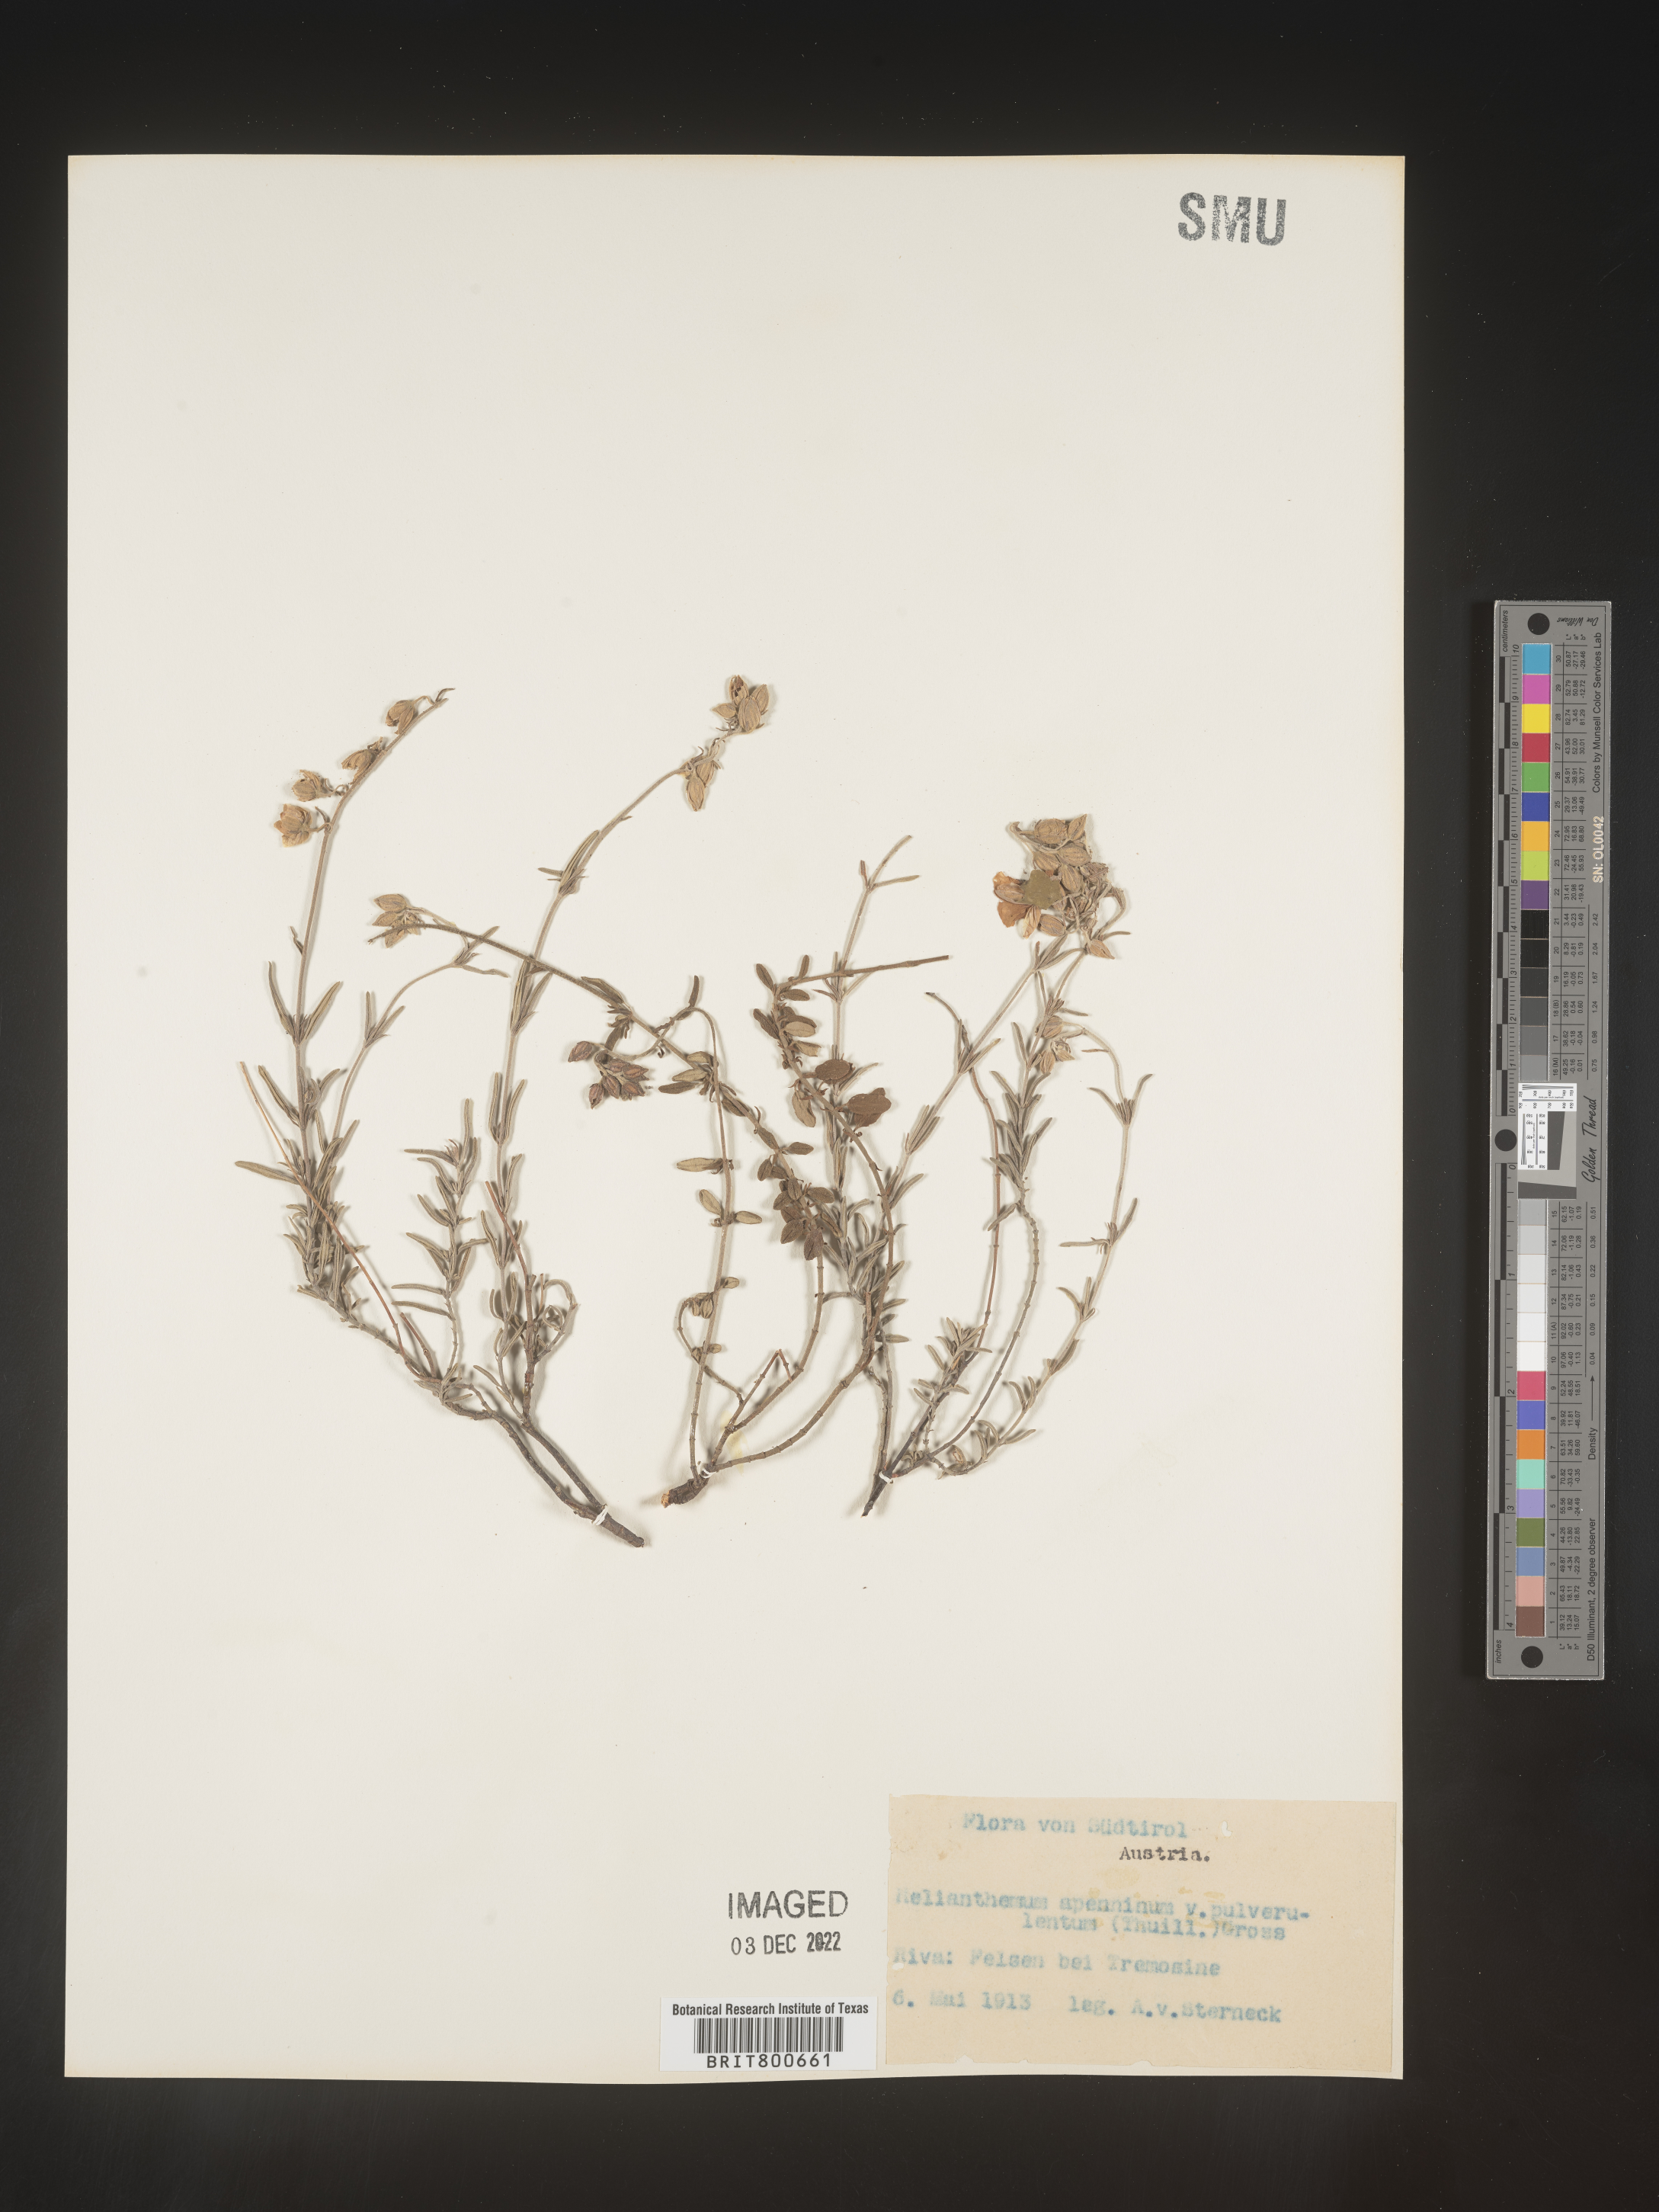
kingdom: Plantae
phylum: Tracheophyta
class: Magnoliopsida
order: Malvales
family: Cistaceae
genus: Helianthemum
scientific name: Helianthemum
